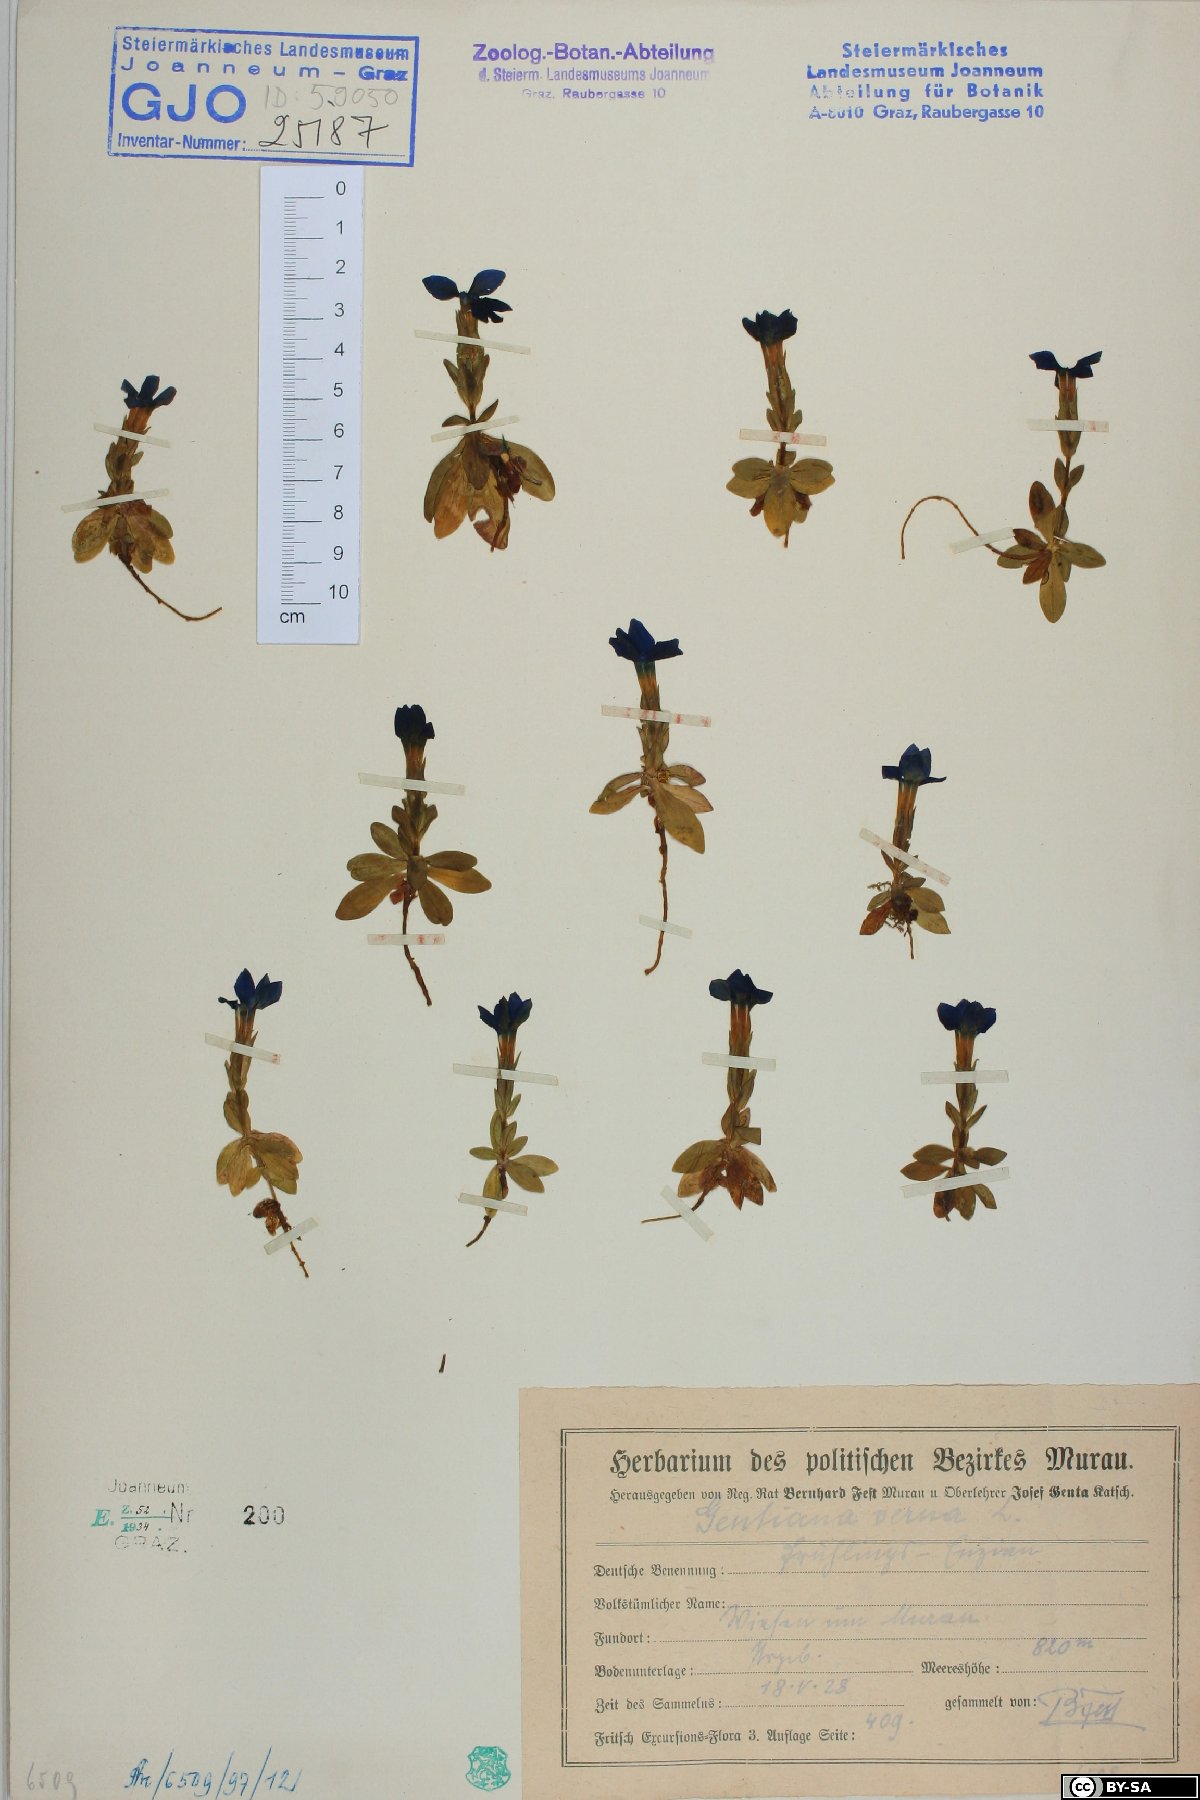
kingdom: Plantae
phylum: Tracheophyta
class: Magnoliopsida
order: Gentianales
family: Gentianaceae
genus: Gentiana
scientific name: Gentiana verna
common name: Spring gentian
